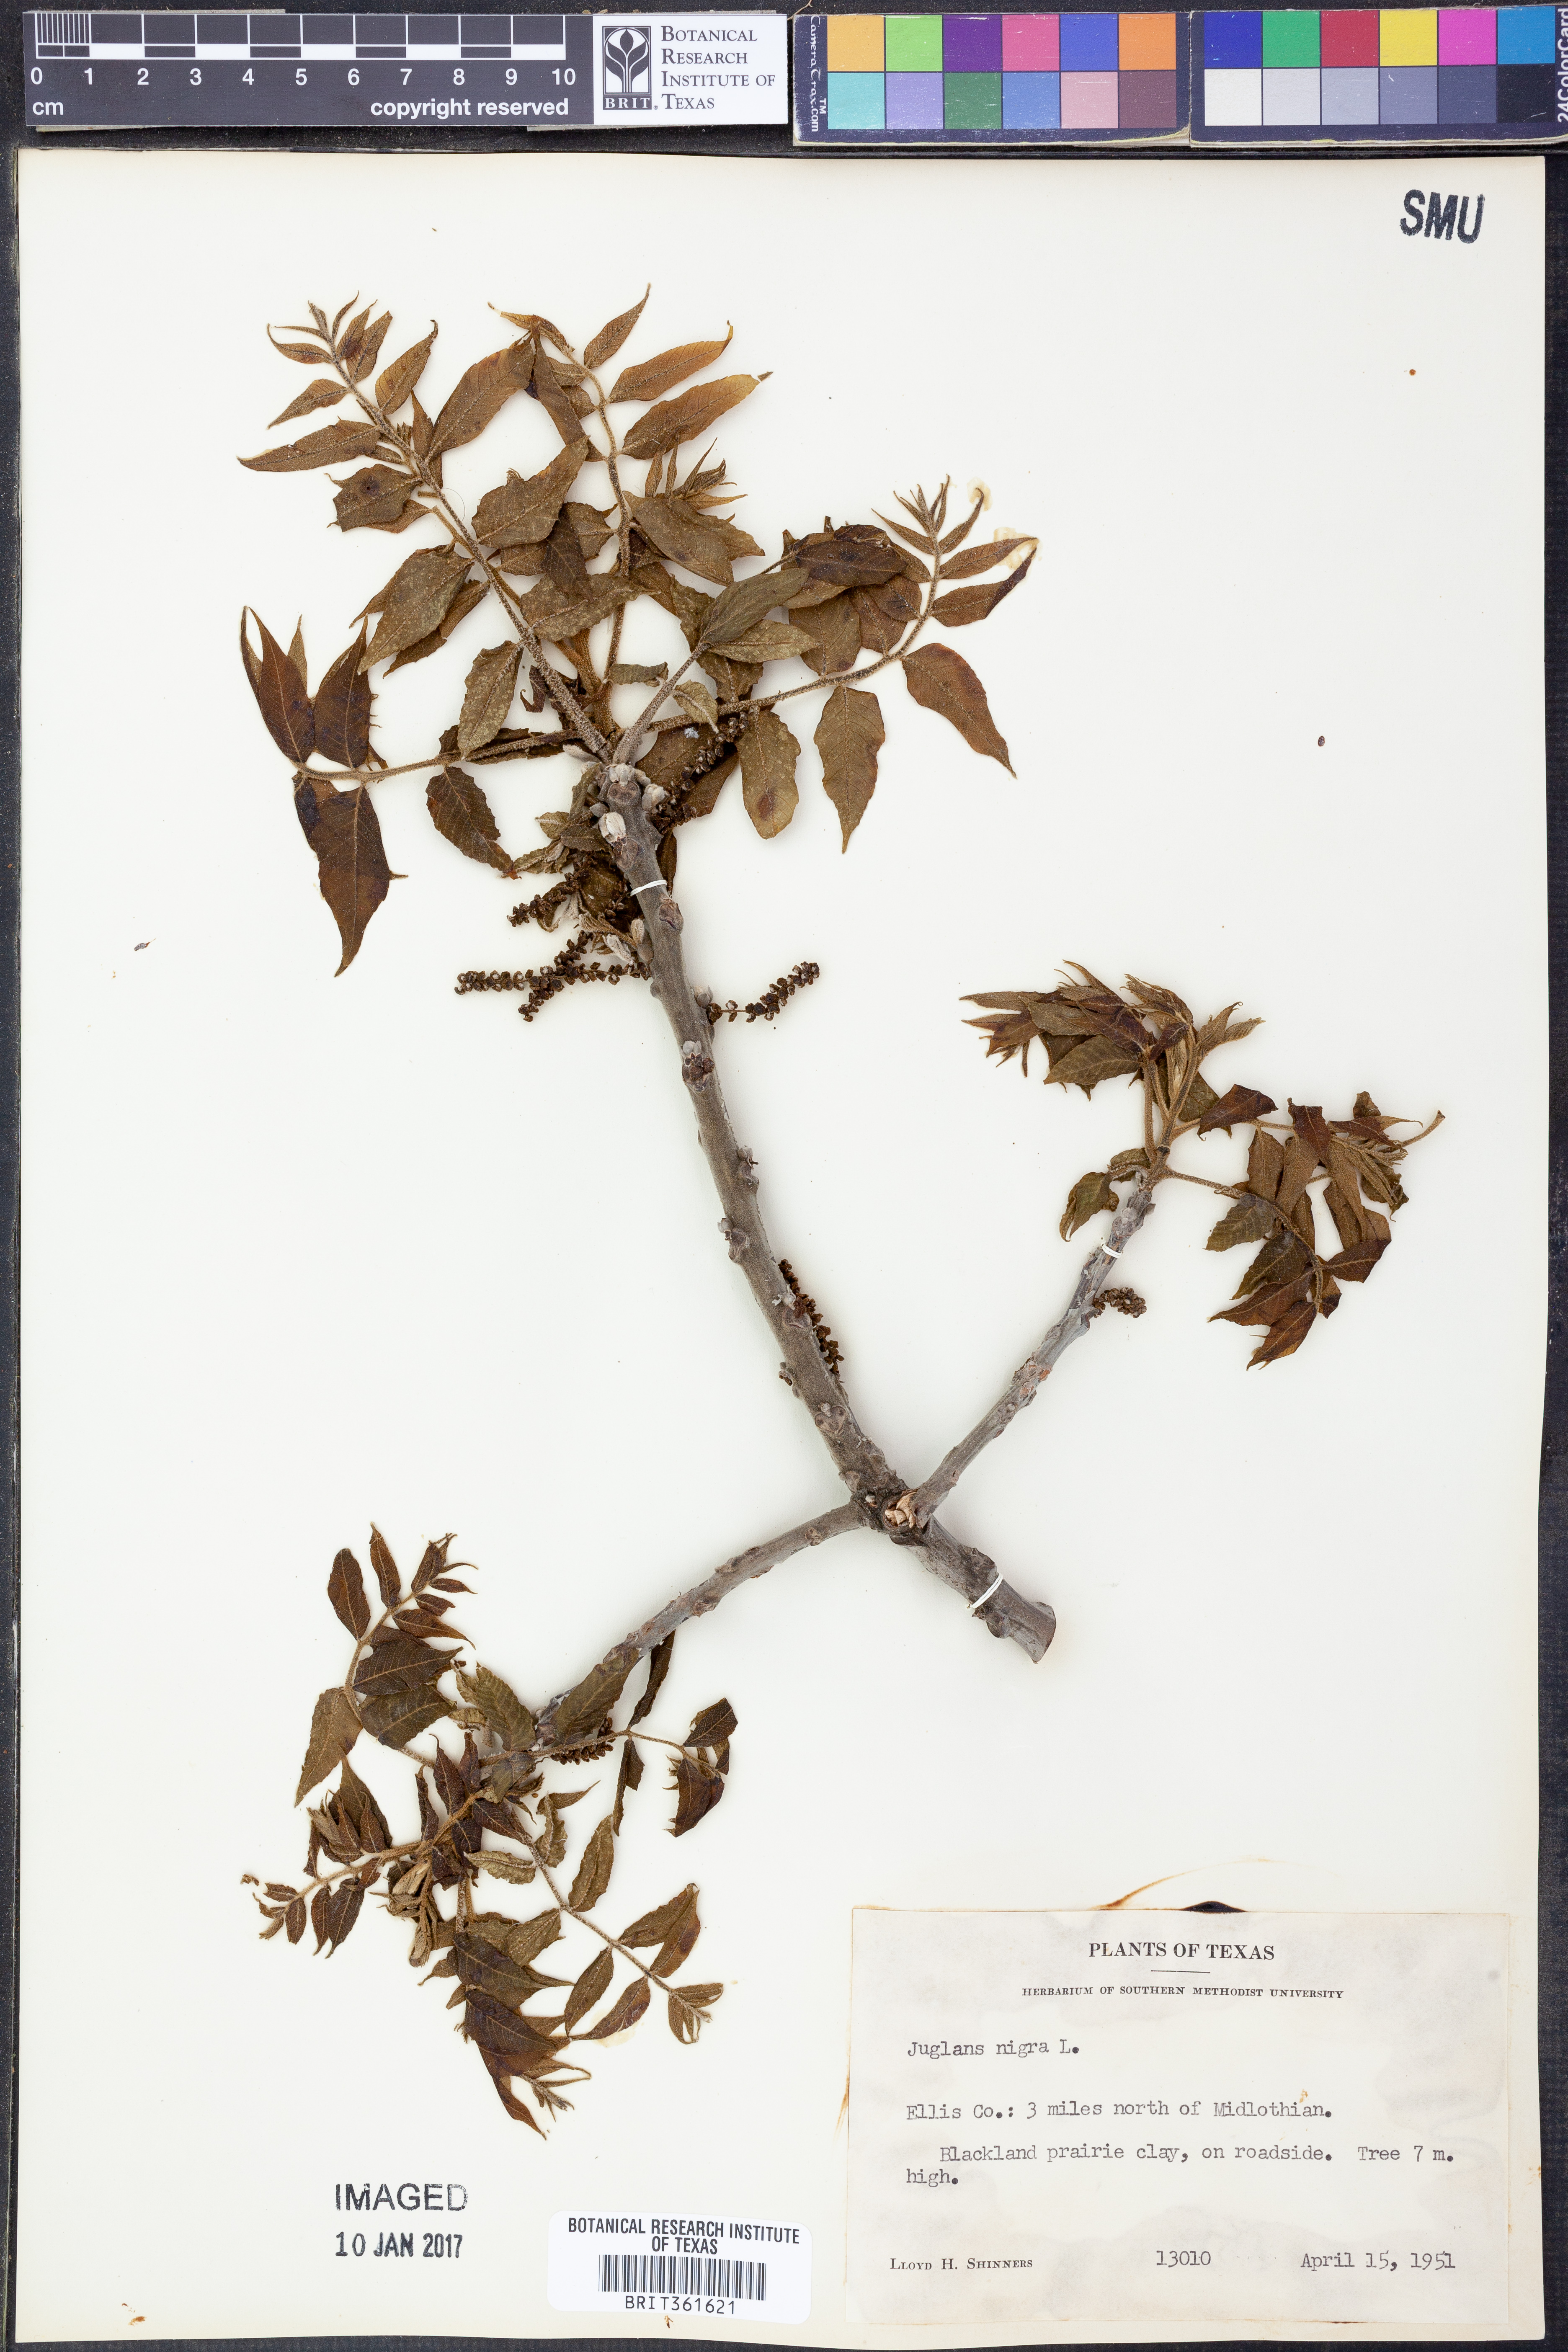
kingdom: Plantae
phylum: Tracheophyta
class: Magnoliopsida
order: Fagales
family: Juglandaceae
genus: Juglans
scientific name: Juglans nigra
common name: Black walnut
